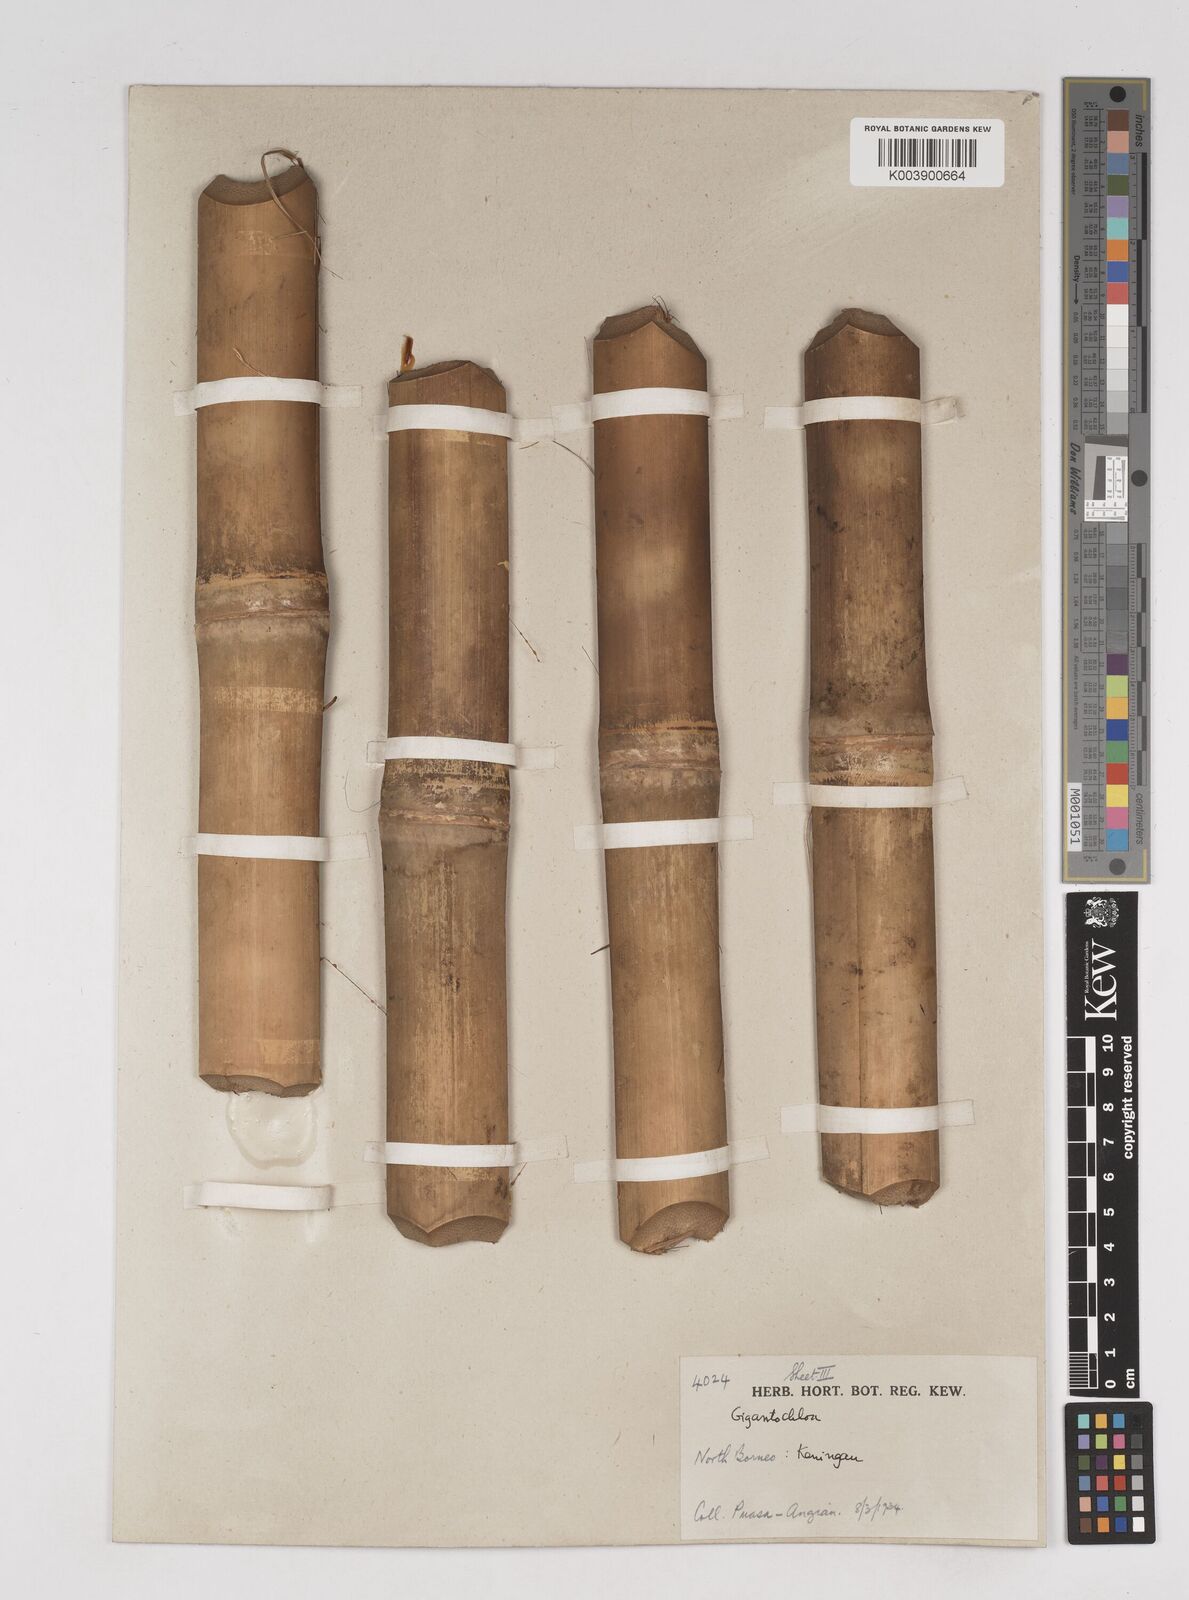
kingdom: Plantae
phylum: Tracheophyta
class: Liliopsida
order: Poales
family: Poaceae
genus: Gigantochloa
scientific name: Gigantochloa longiprophylla
